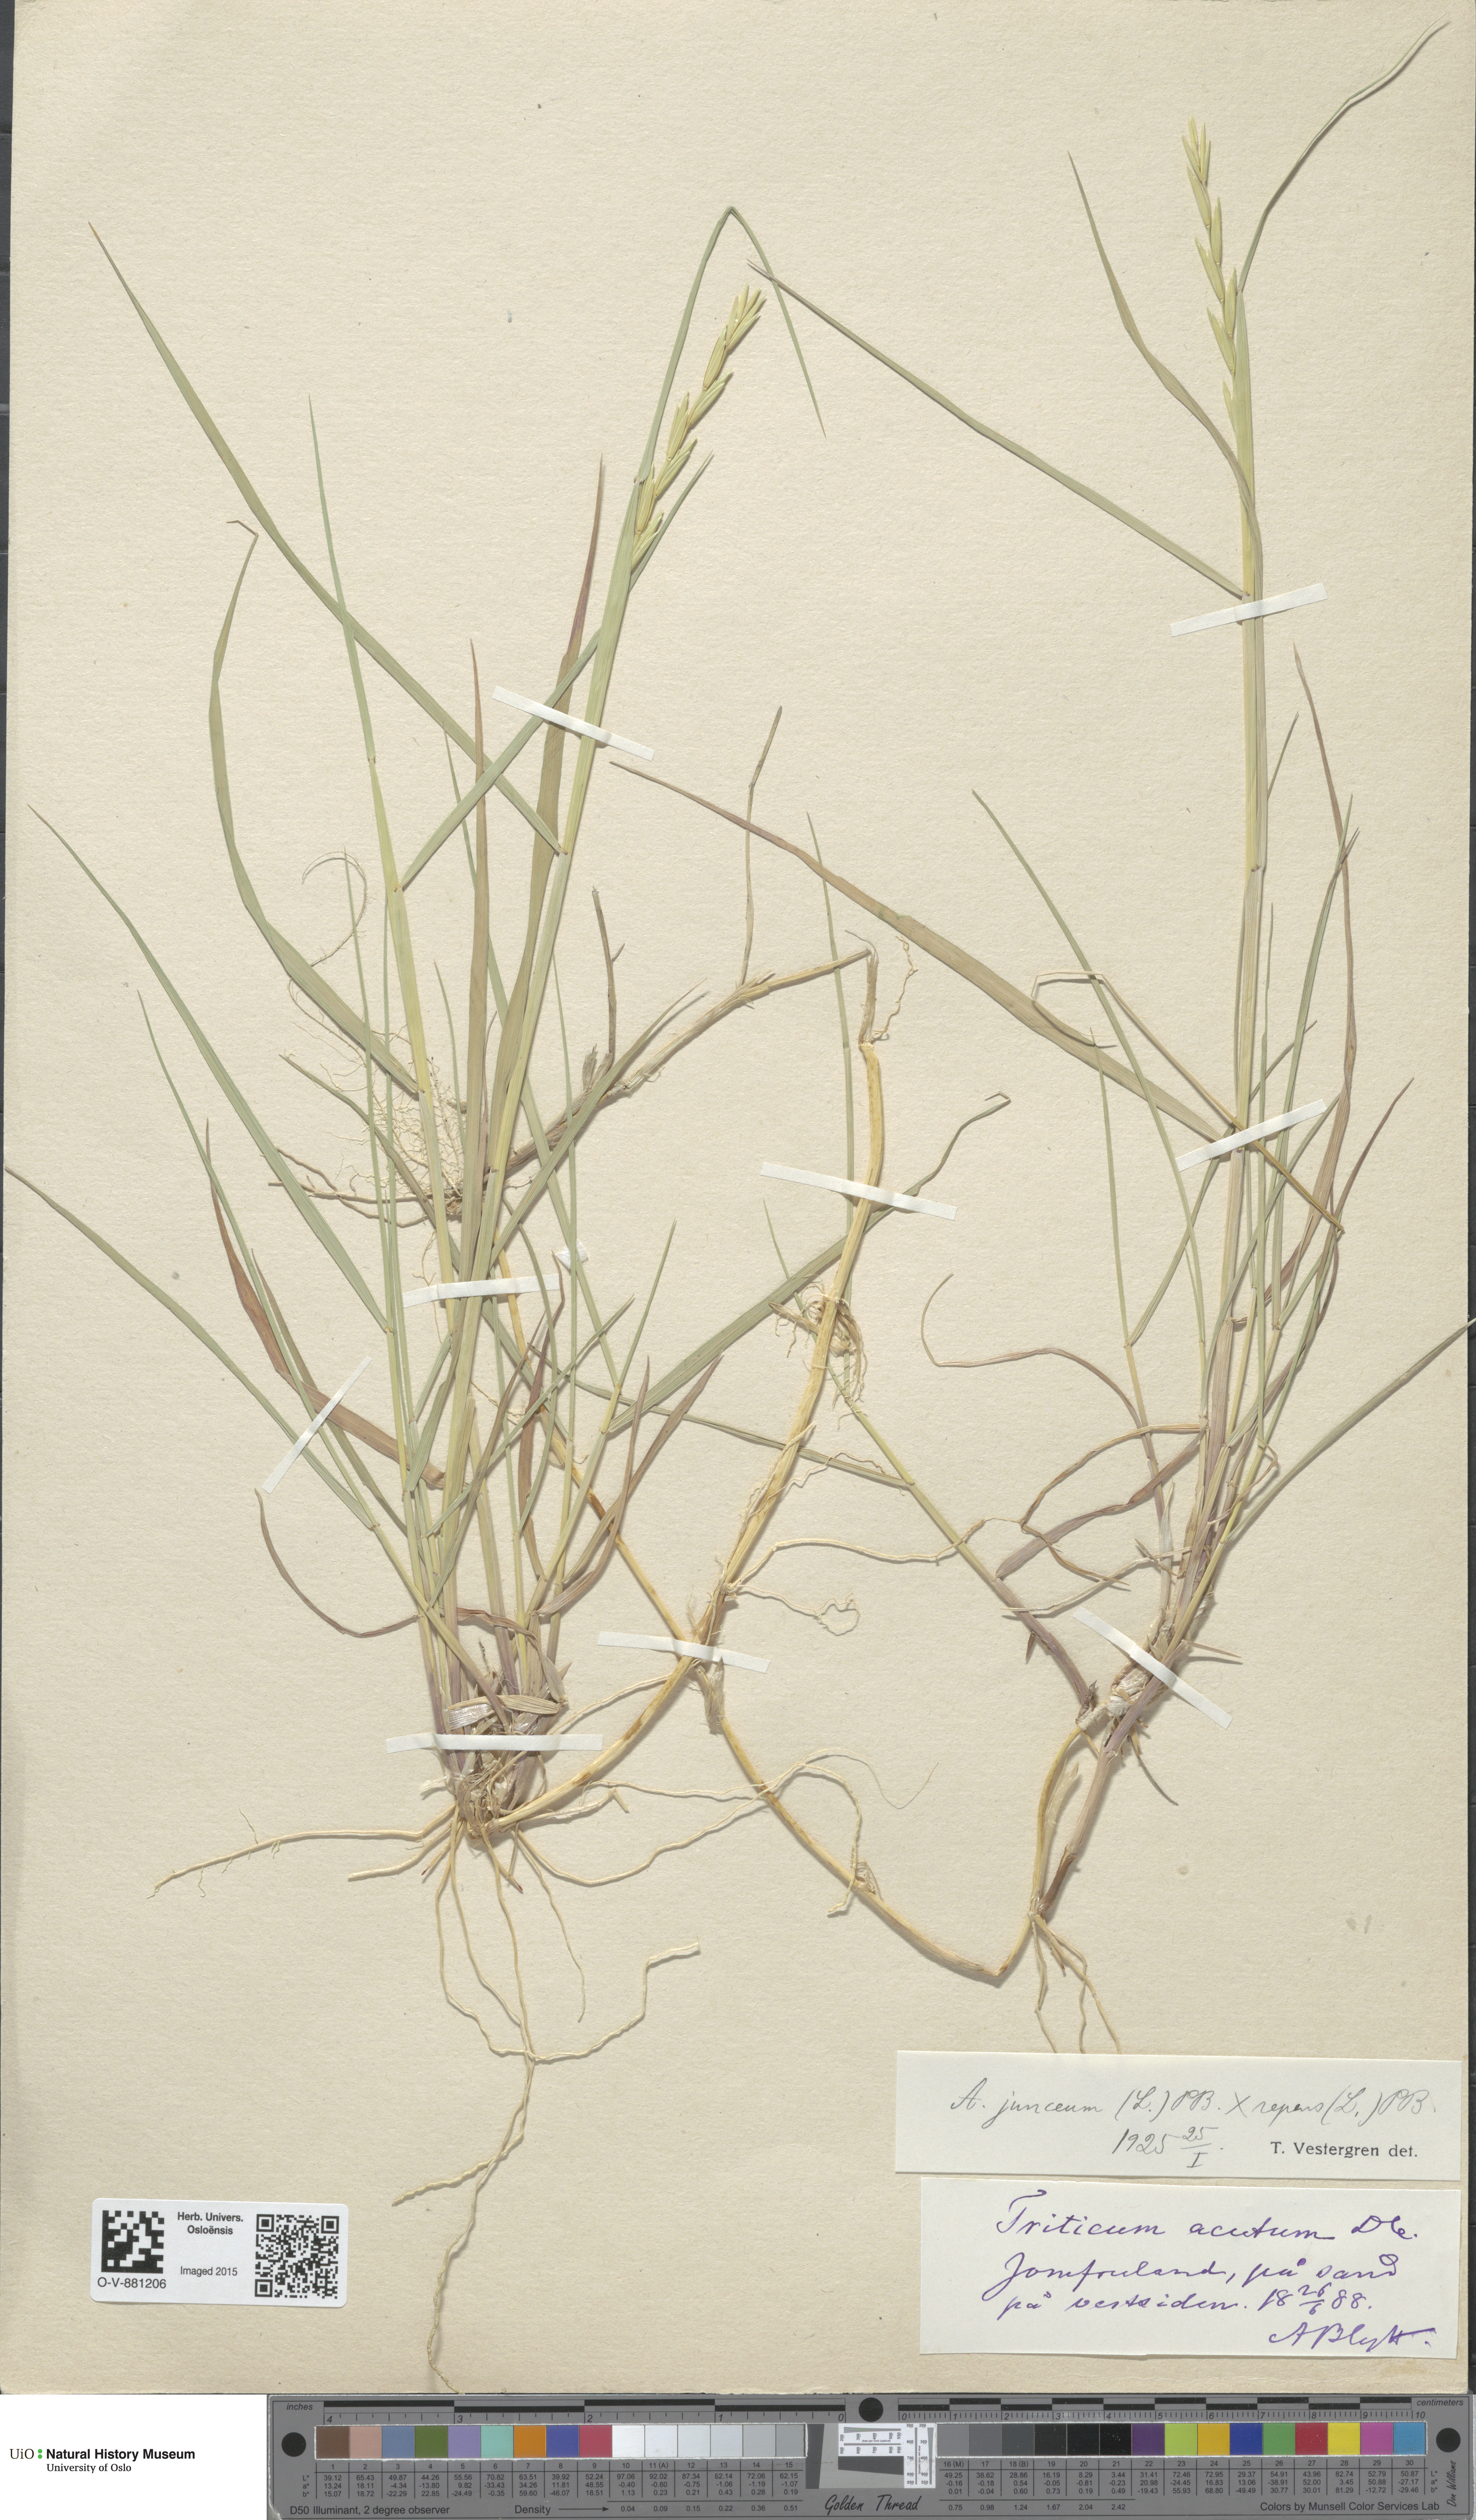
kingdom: Plantae
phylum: Tracheophyta
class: Liliopsida
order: Poales
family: Poaceae
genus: Elymus
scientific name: Elymus
